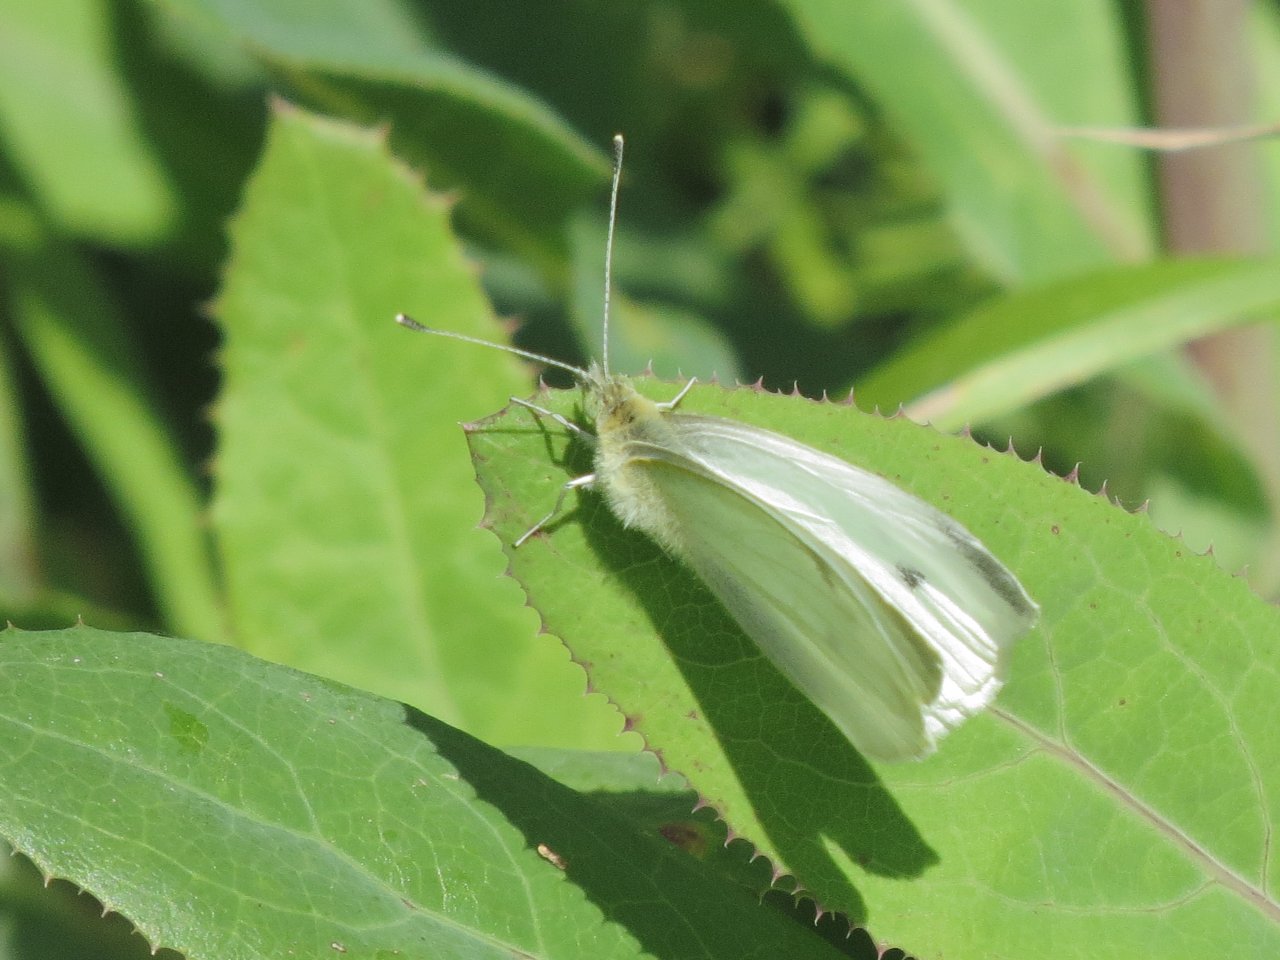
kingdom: Animalia
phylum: Arthropoda
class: Insecta
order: Lepidoptera
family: Pieridae
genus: Pieris
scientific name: Pieris rapae
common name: Cabbage White
